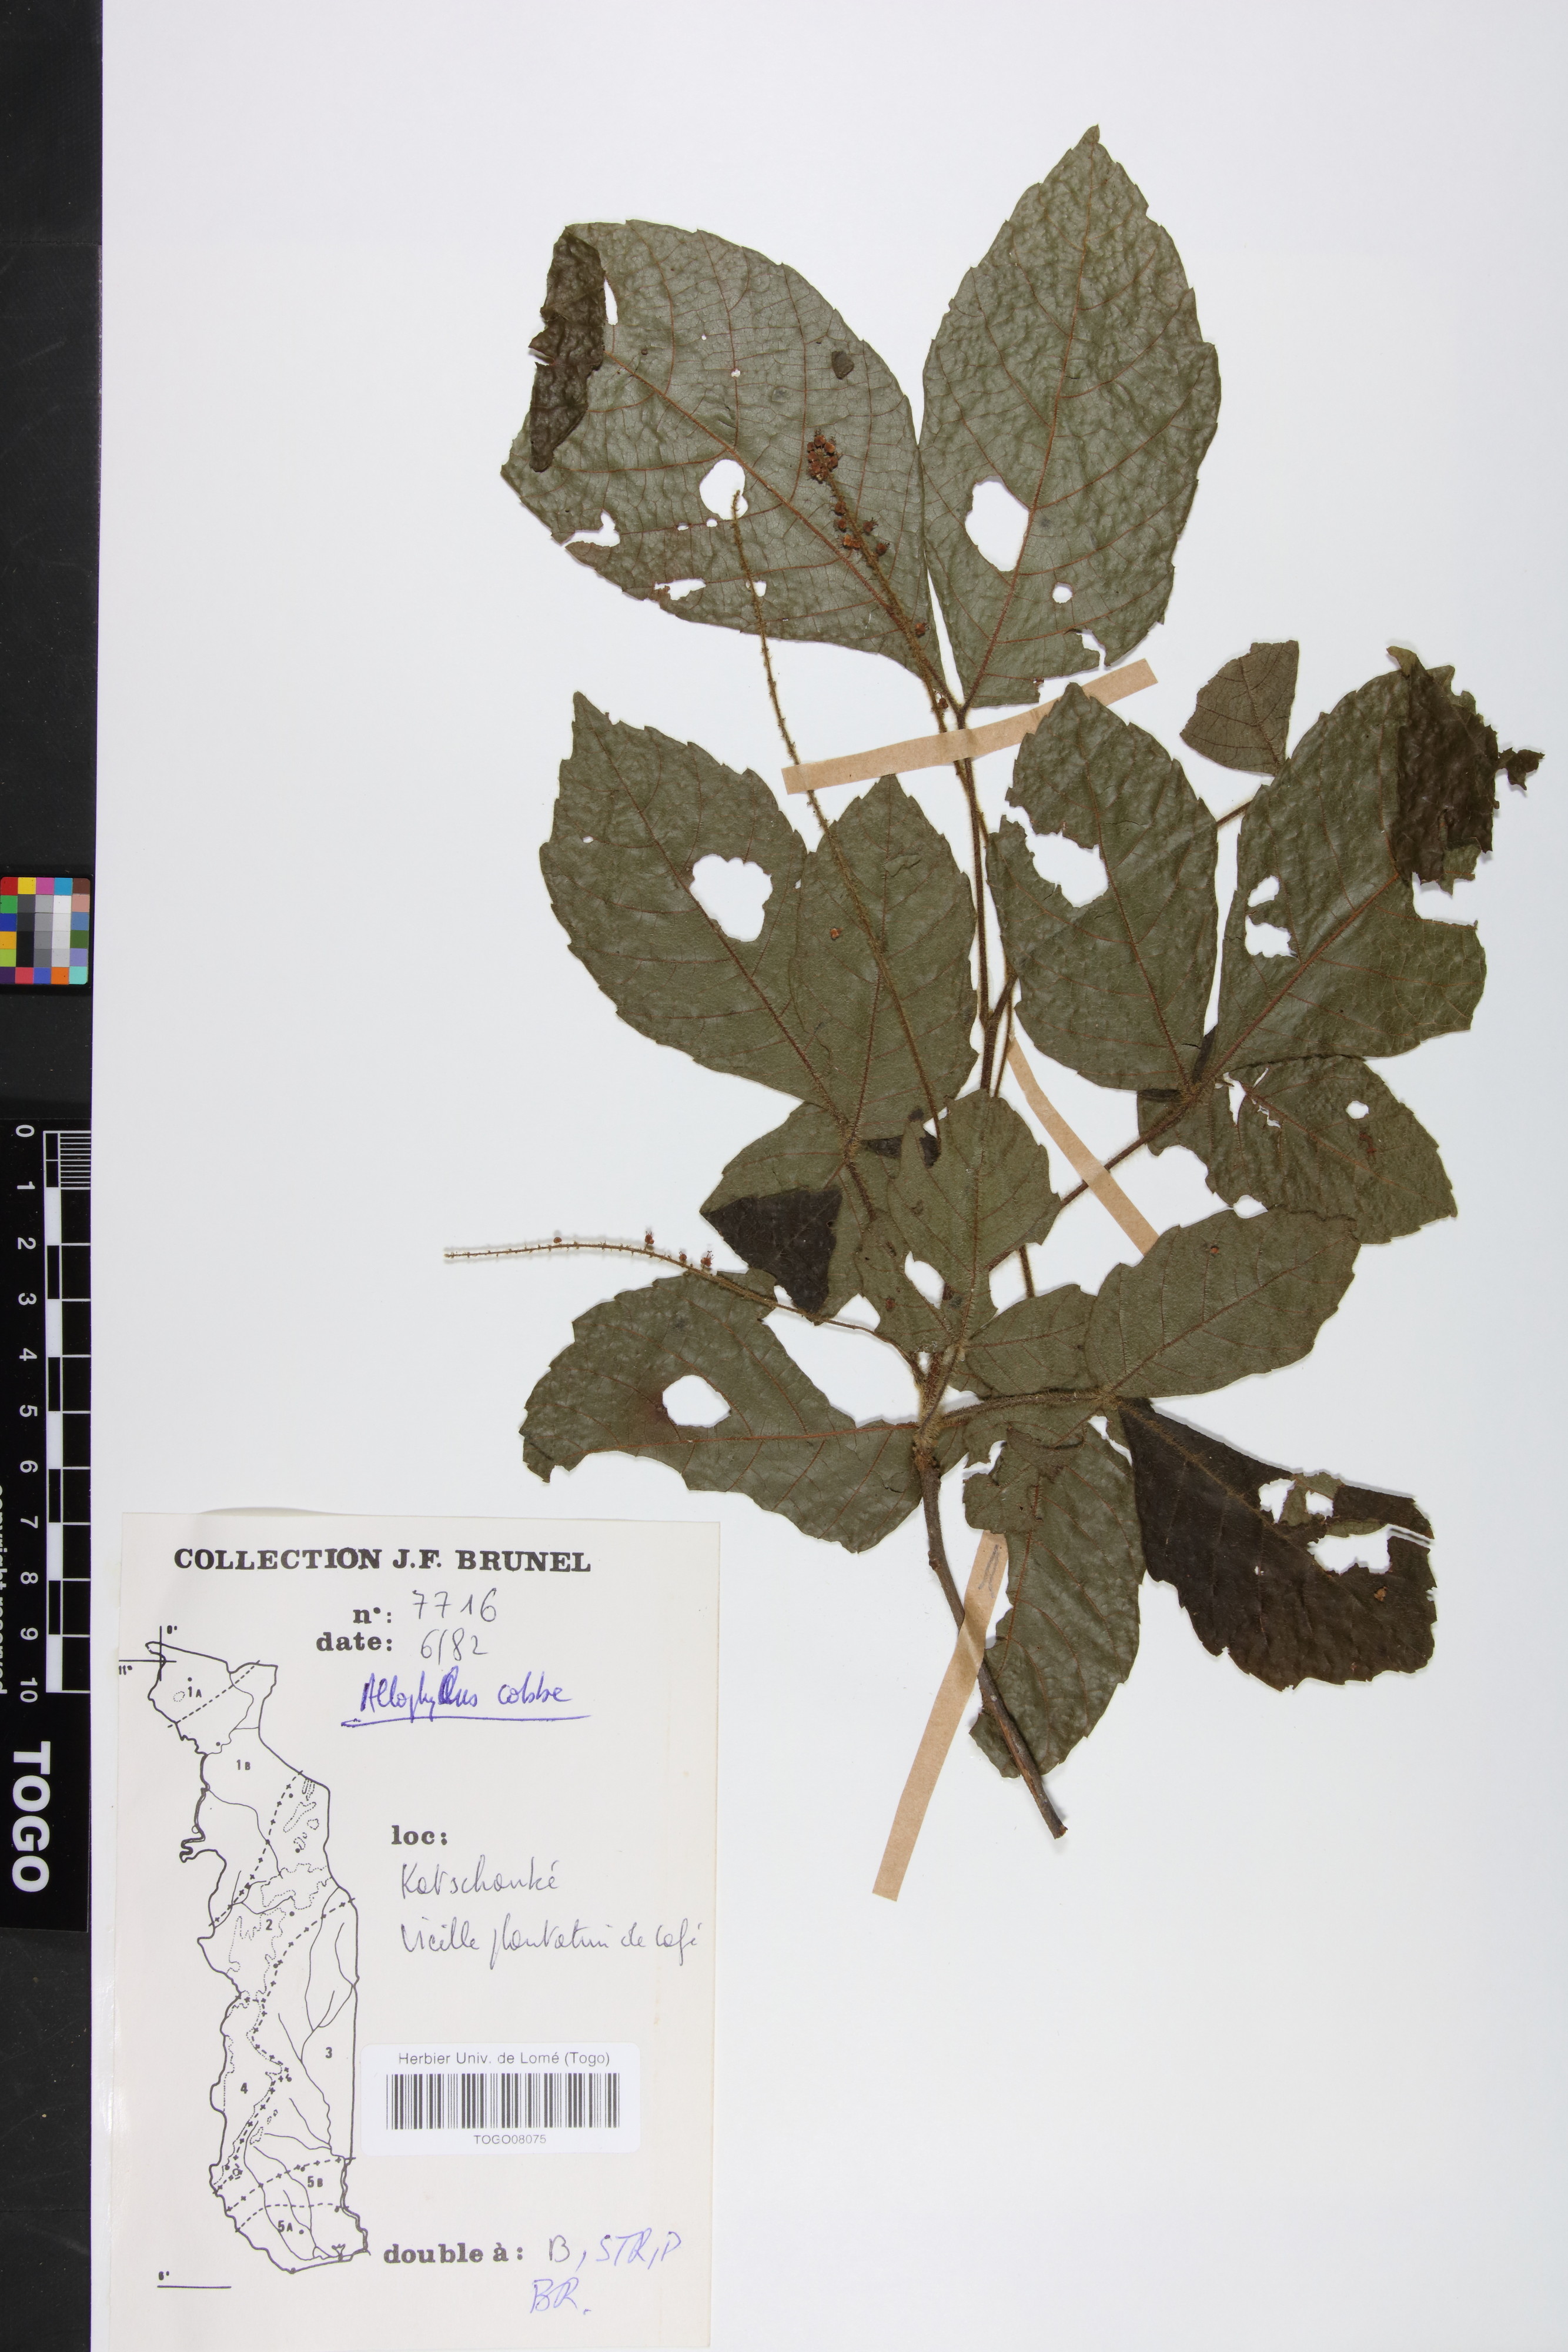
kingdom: Plantae
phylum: Tracheophyta
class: Magnoliopsida
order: Sapindales
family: Sapindaceae
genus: Allophylus
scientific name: Allophylus cobbe
